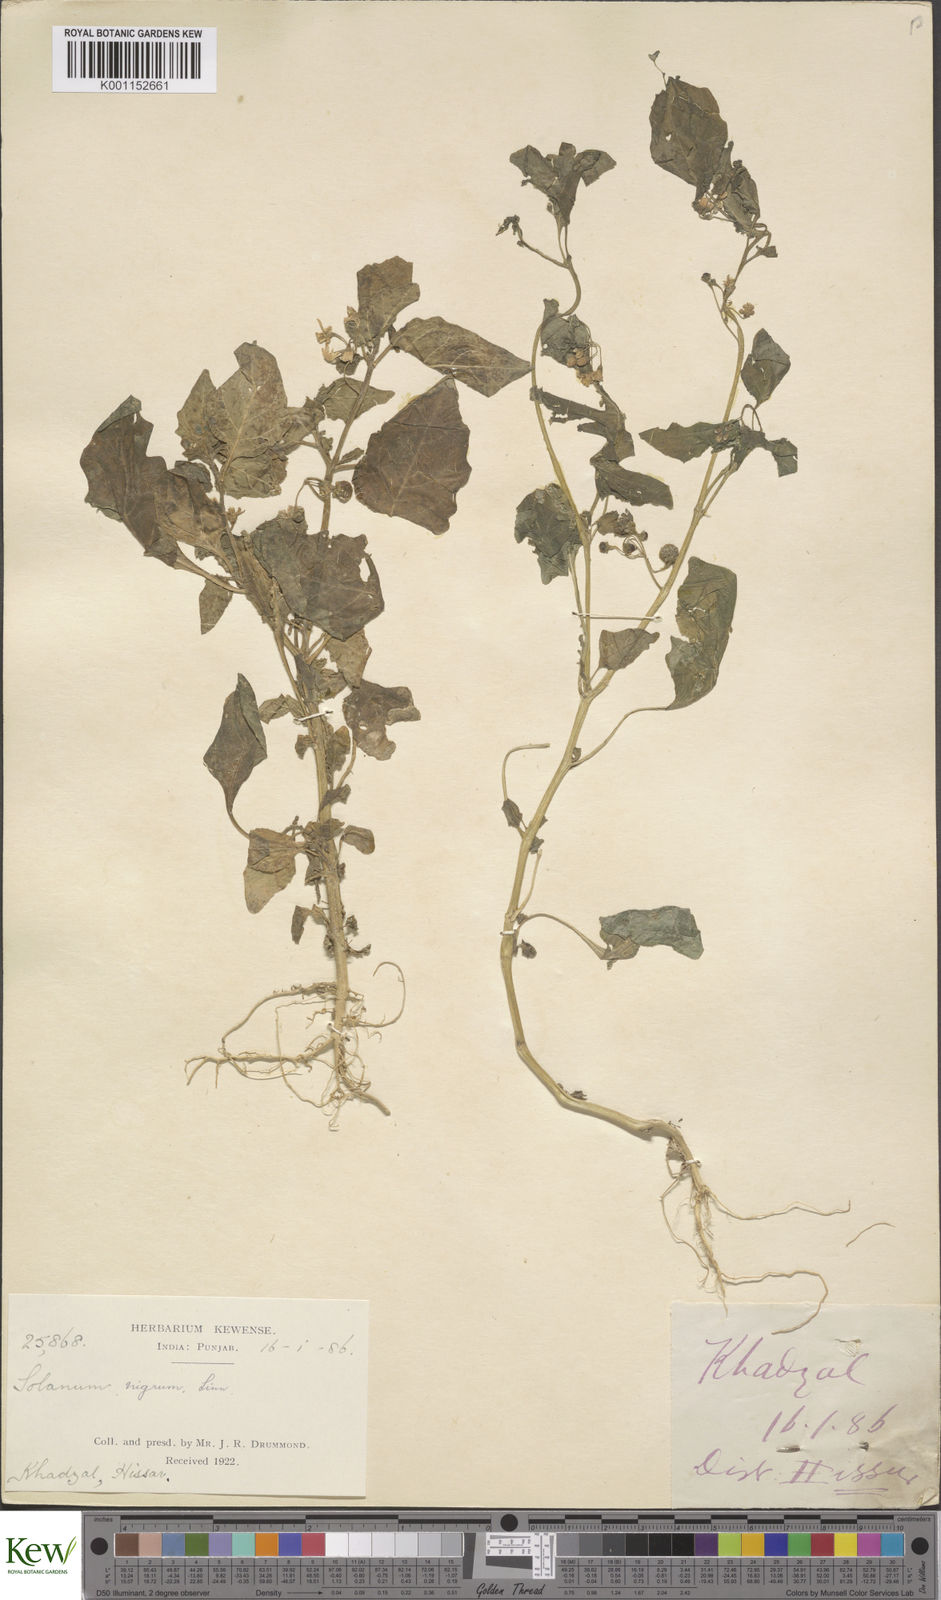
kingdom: Plantae
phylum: Tracheophyta
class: Magnoliopsida
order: Solanales
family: Solanaceae
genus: Solanum
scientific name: Solanum nigrum
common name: Black nightshade
